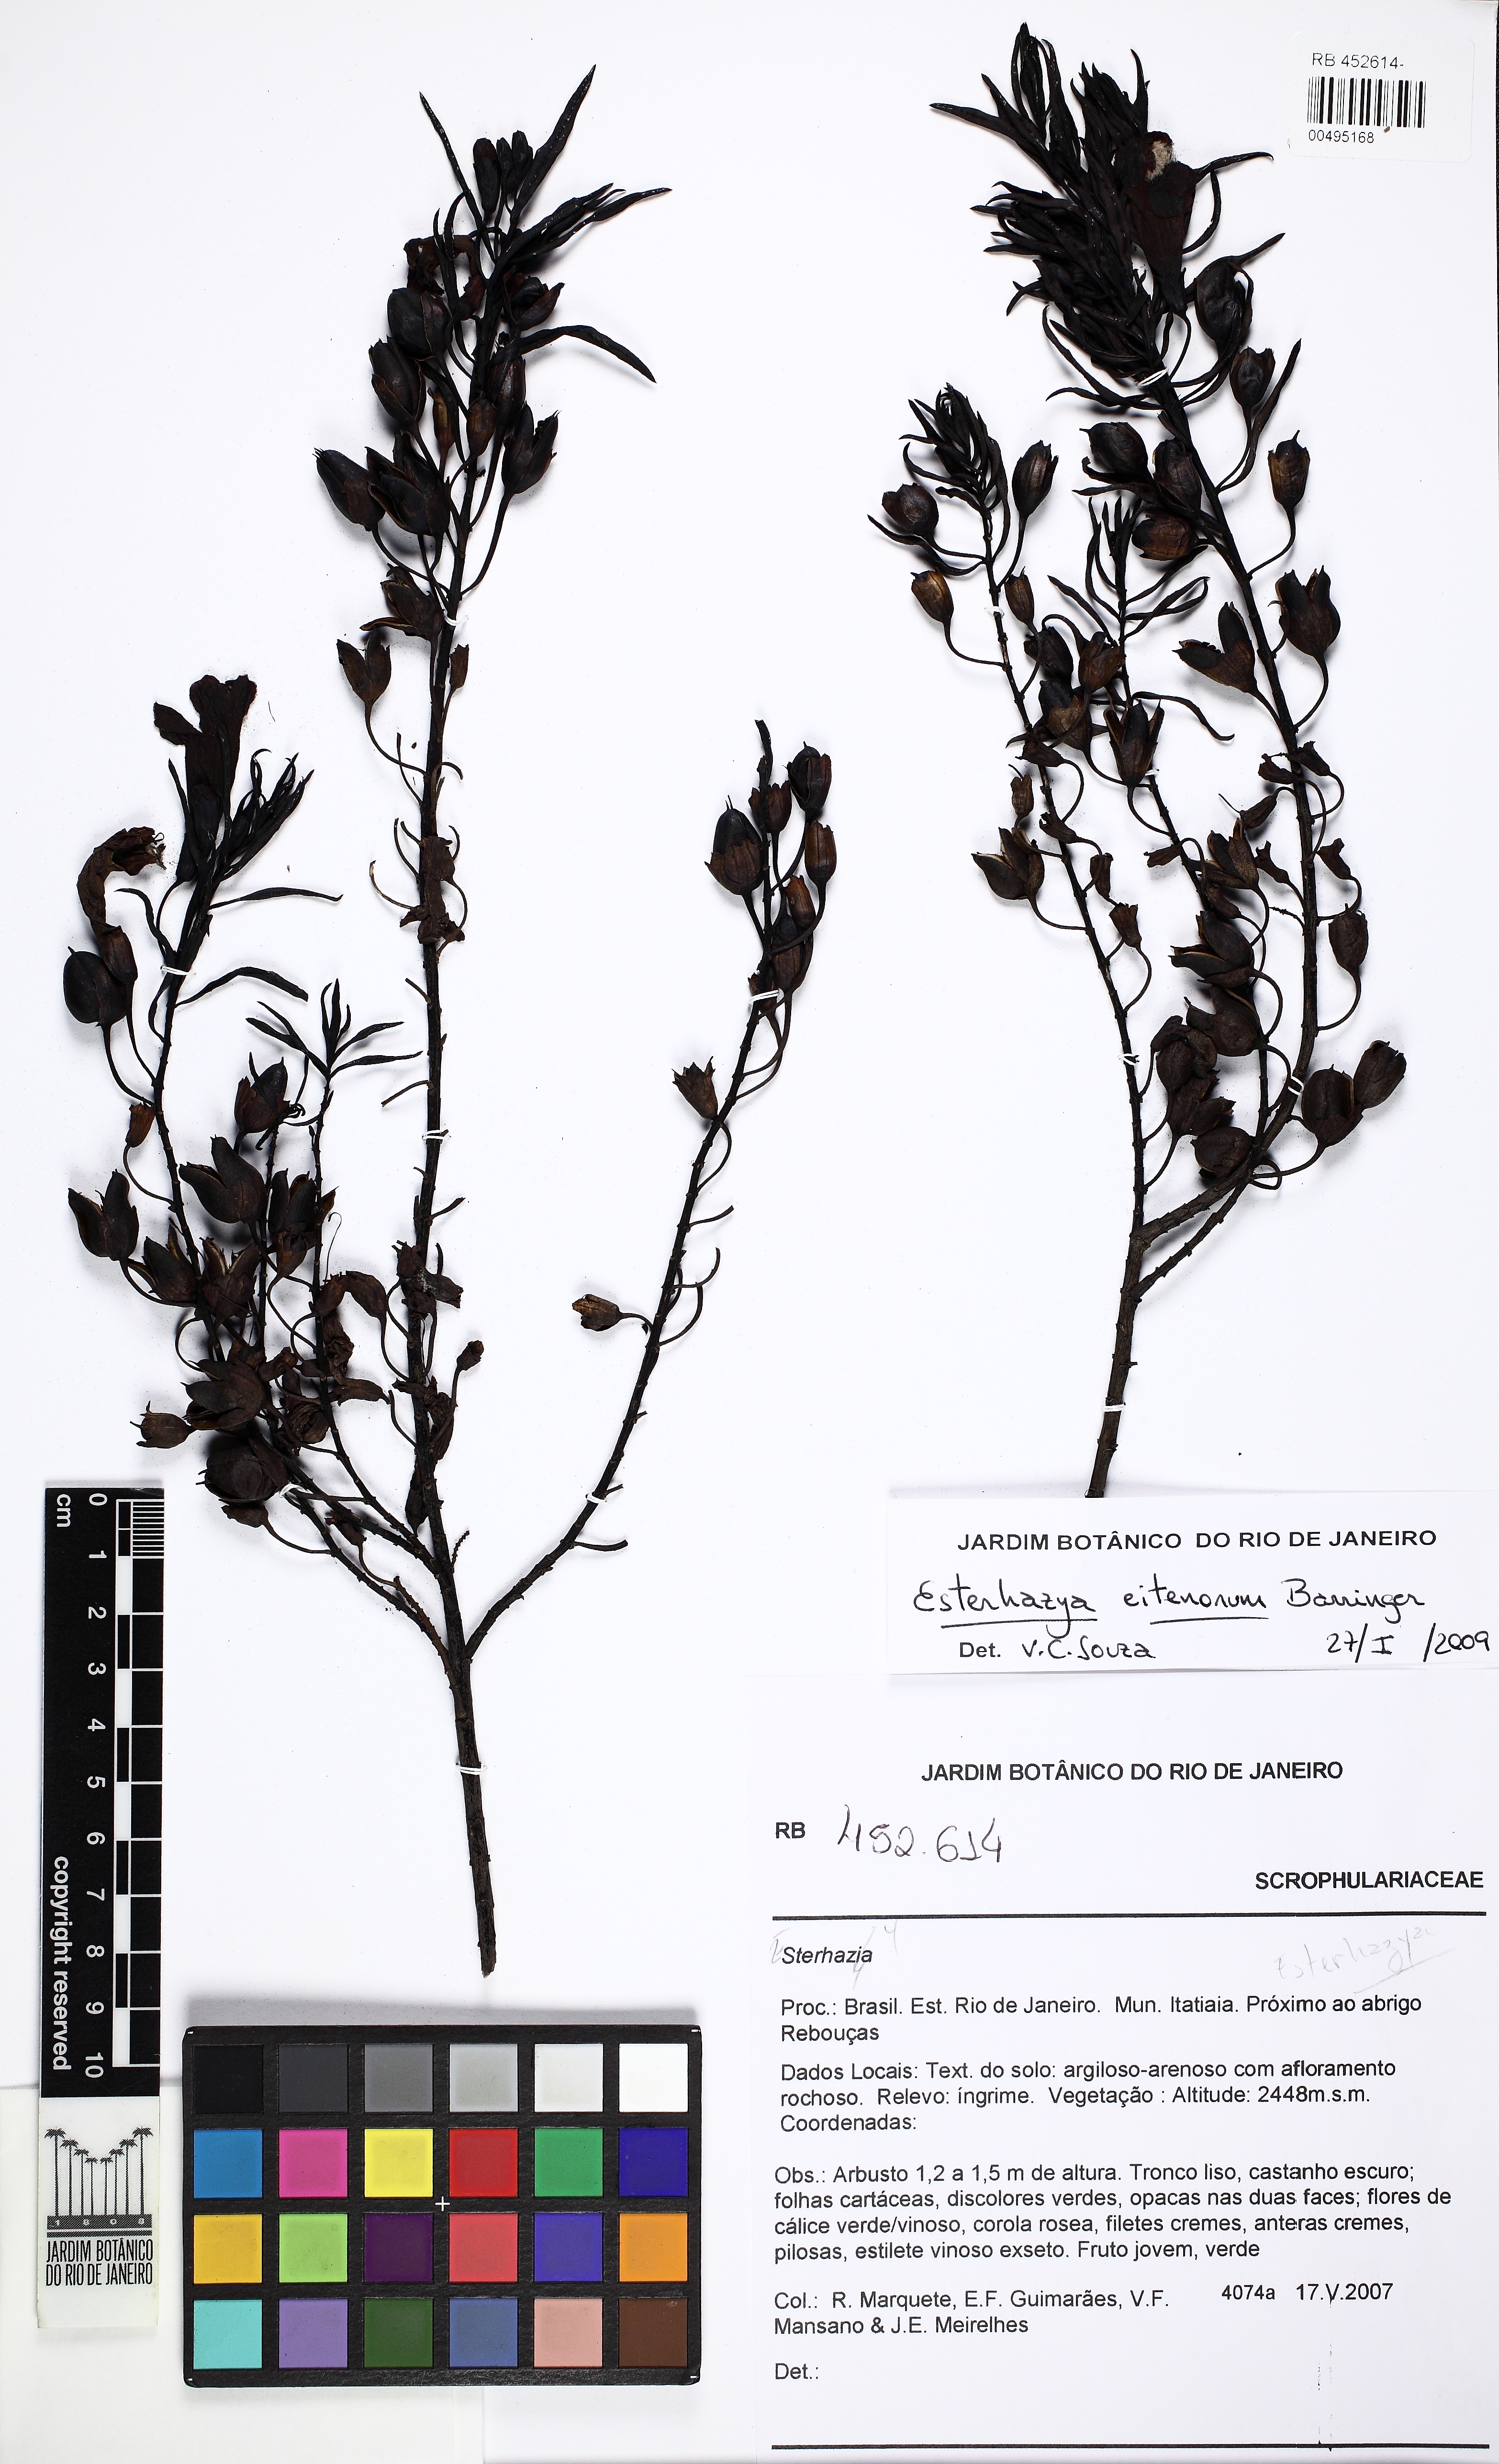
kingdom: Plantae
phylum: Tracheophyta
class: Magnoliopsida
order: Lamiales
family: Orobanchaceae
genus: Esterhazya
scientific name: Esterhazya eitenorum
